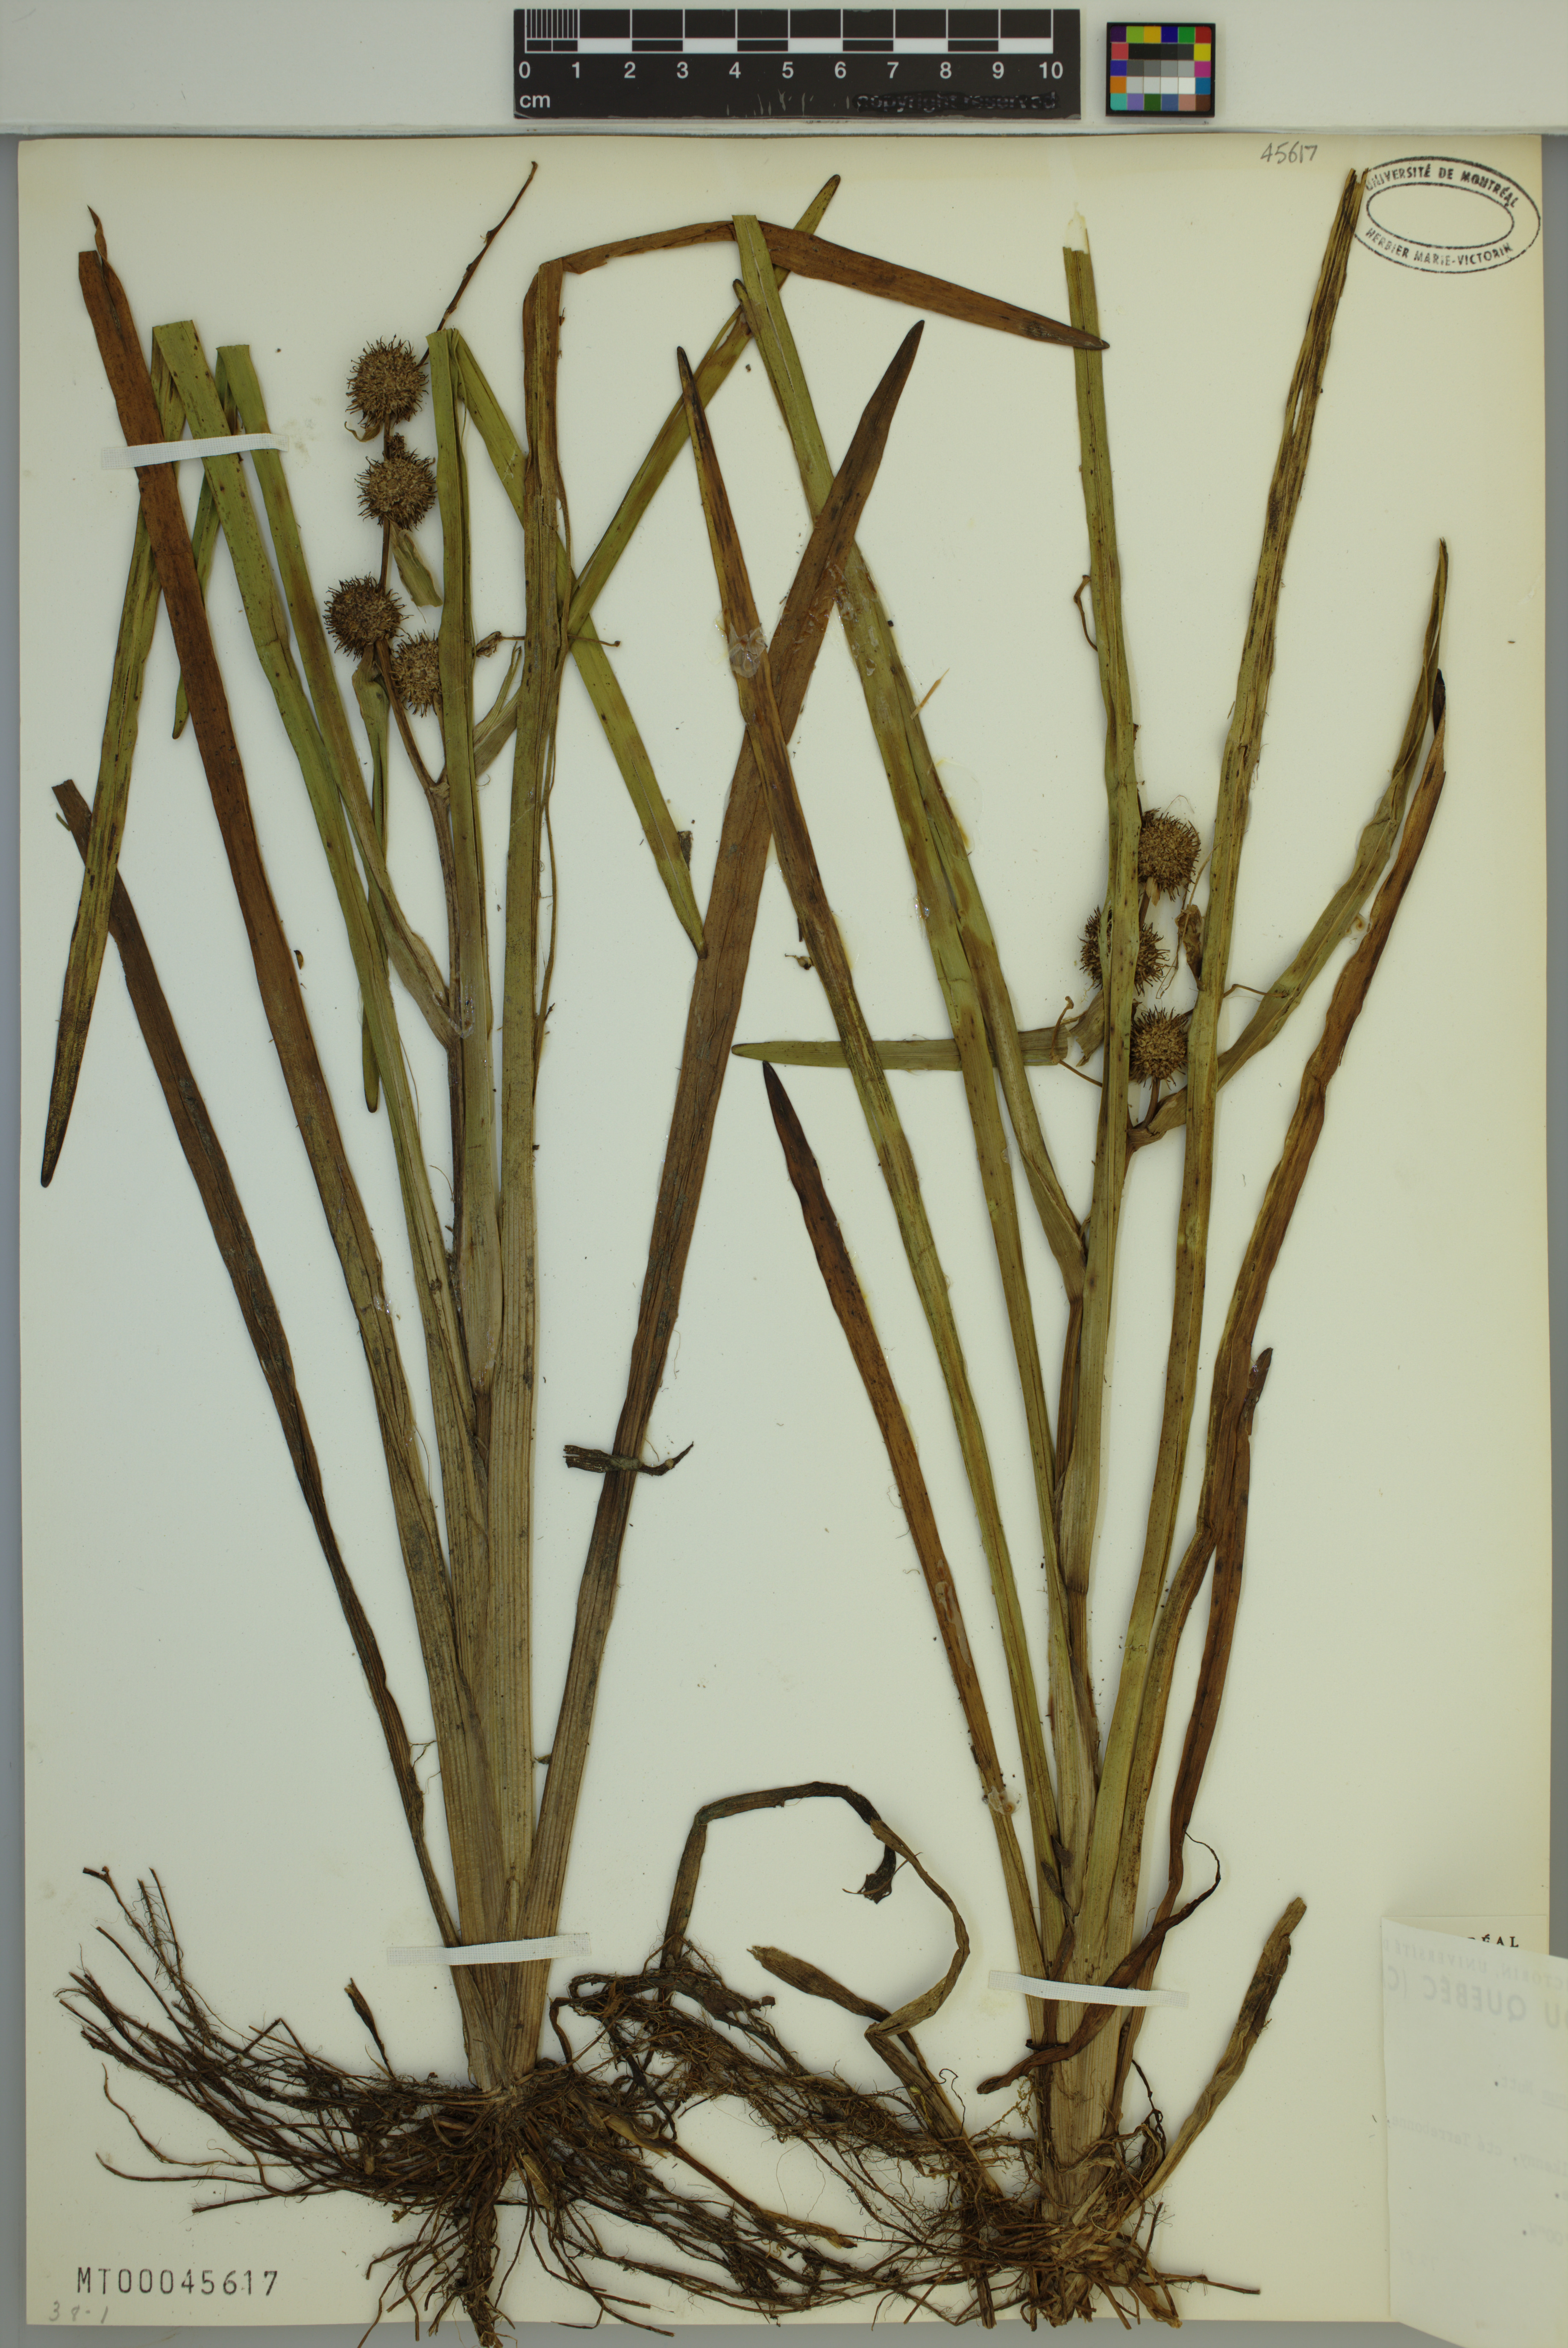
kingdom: Plantae
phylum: Tracheophyta
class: Liliopsida
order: Poales
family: Typhaceae
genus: Sparganium
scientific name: Sparganium americanum
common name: American burreed
